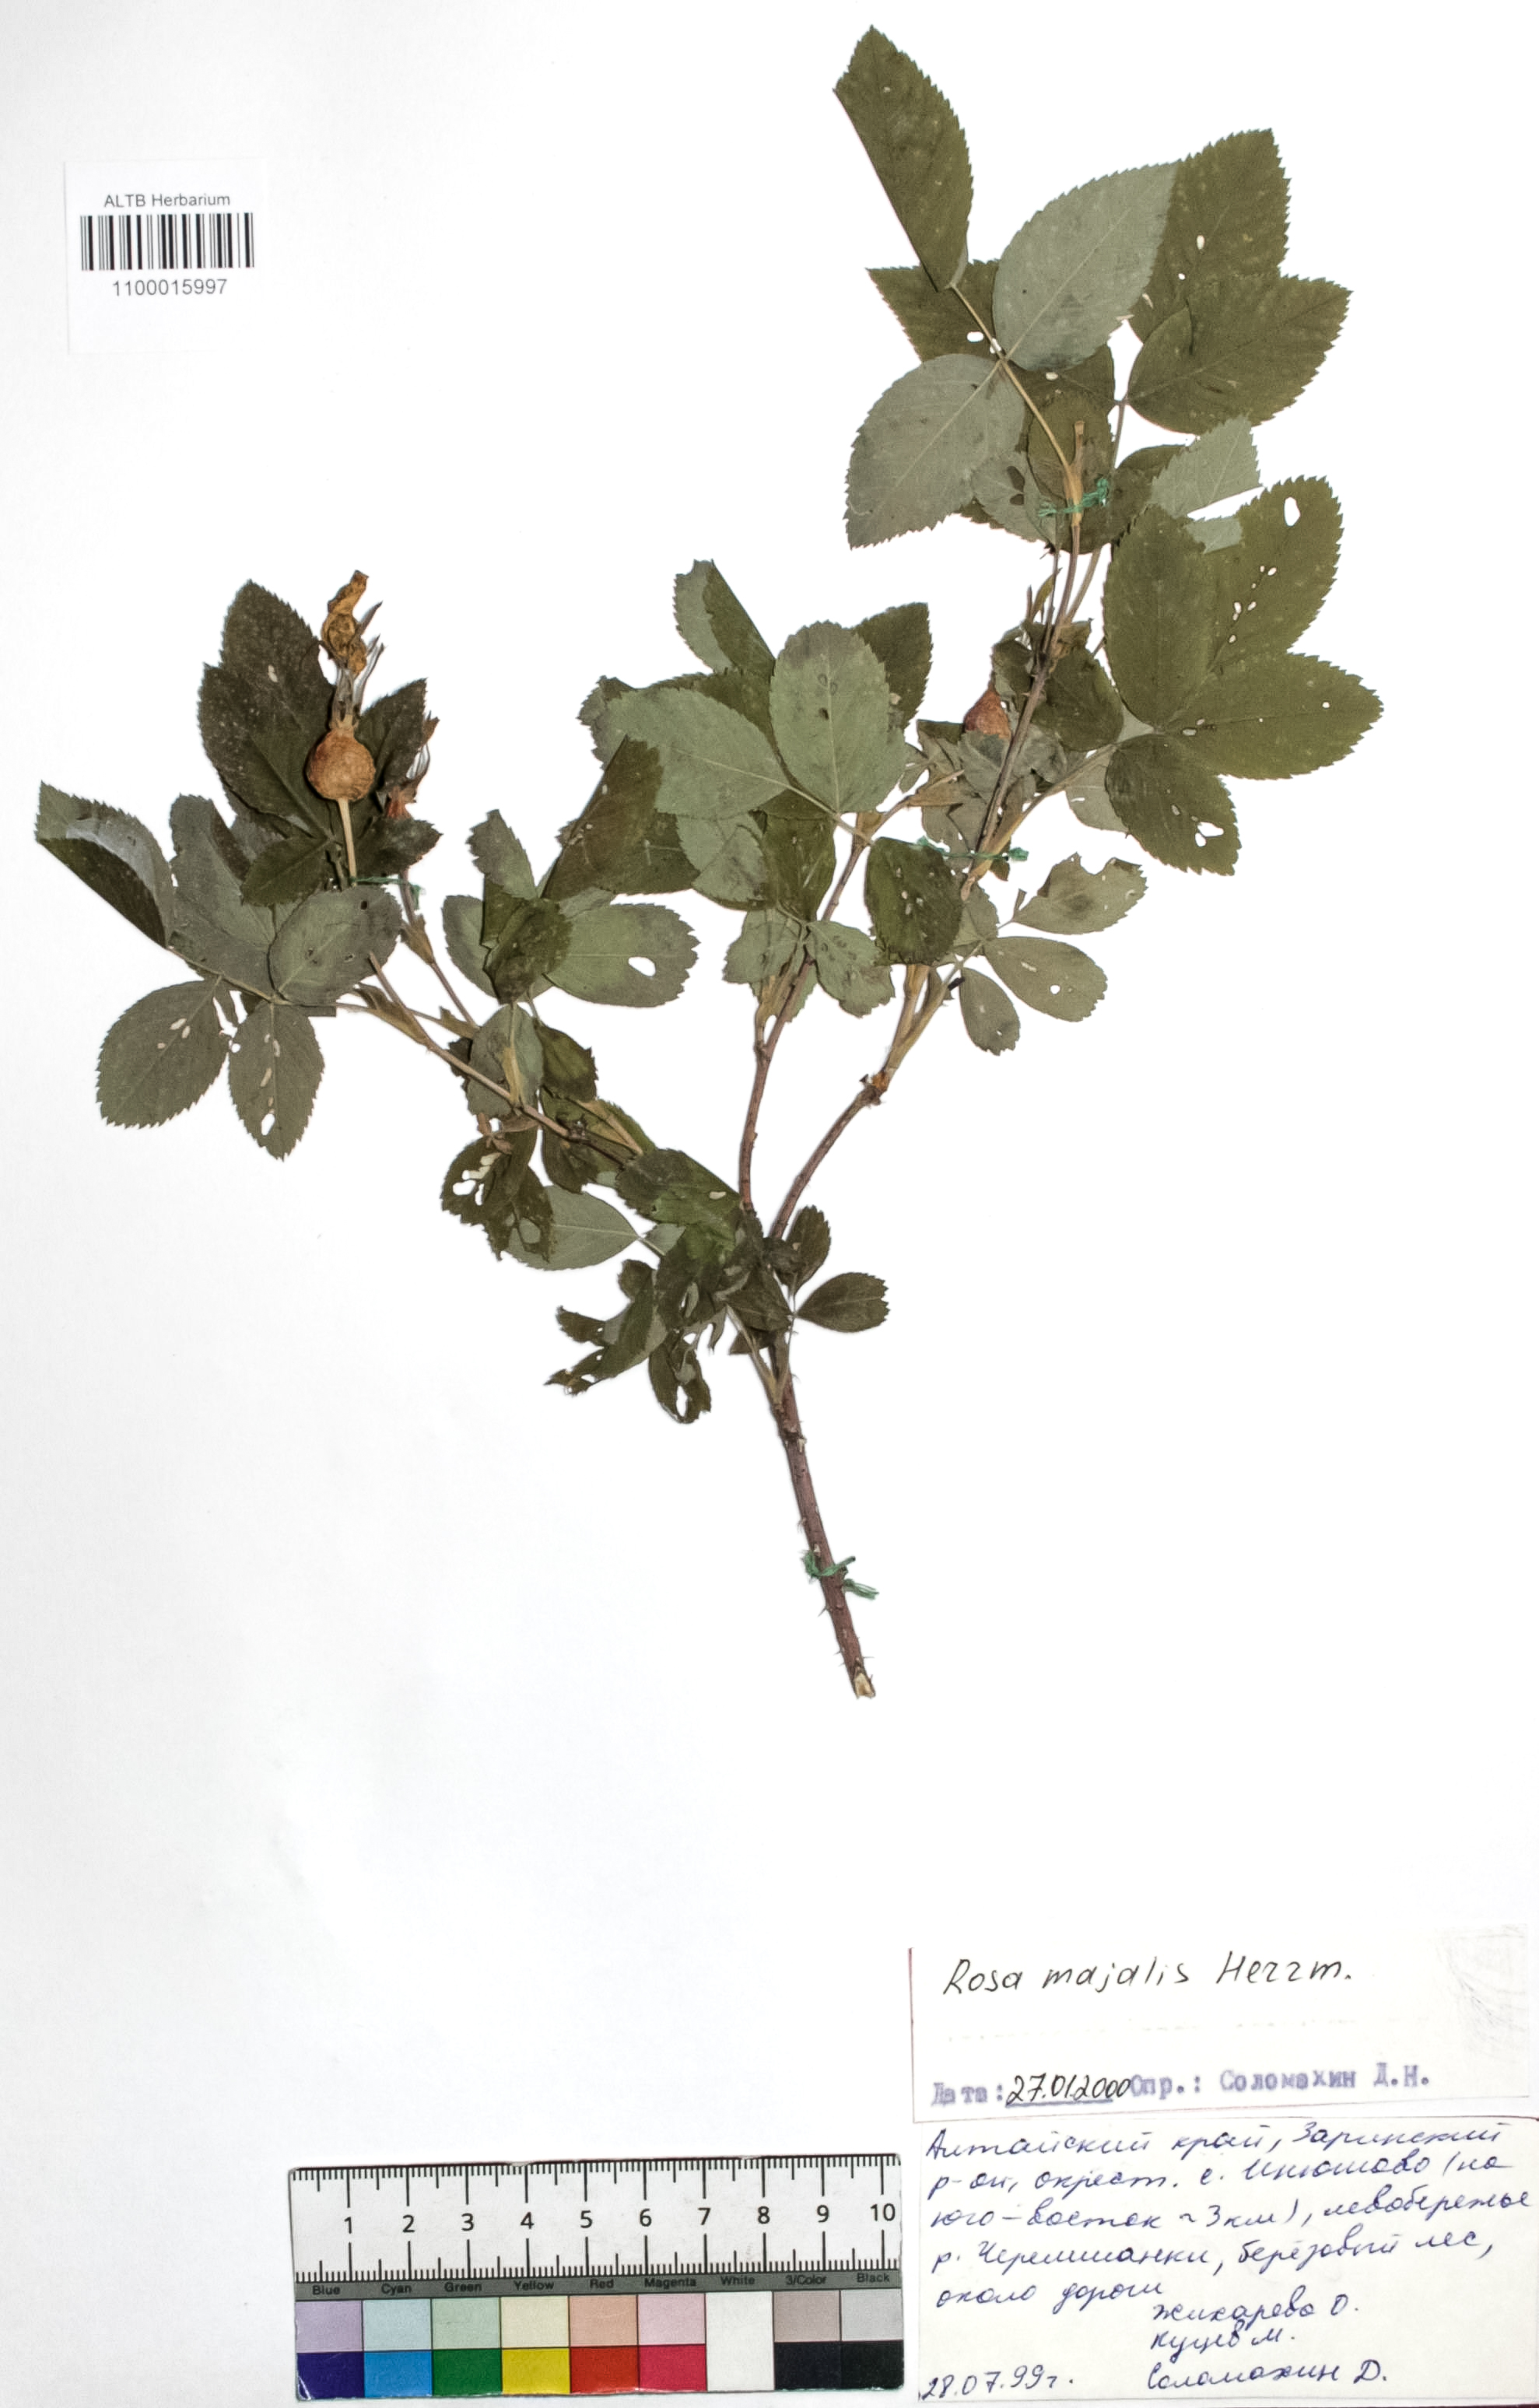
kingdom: Plantae
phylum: Tracheophyta
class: Magnoliopsida
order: Rosales
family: Rosaceae
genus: Rosa
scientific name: Rosa majalis
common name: Cinnamon rose
